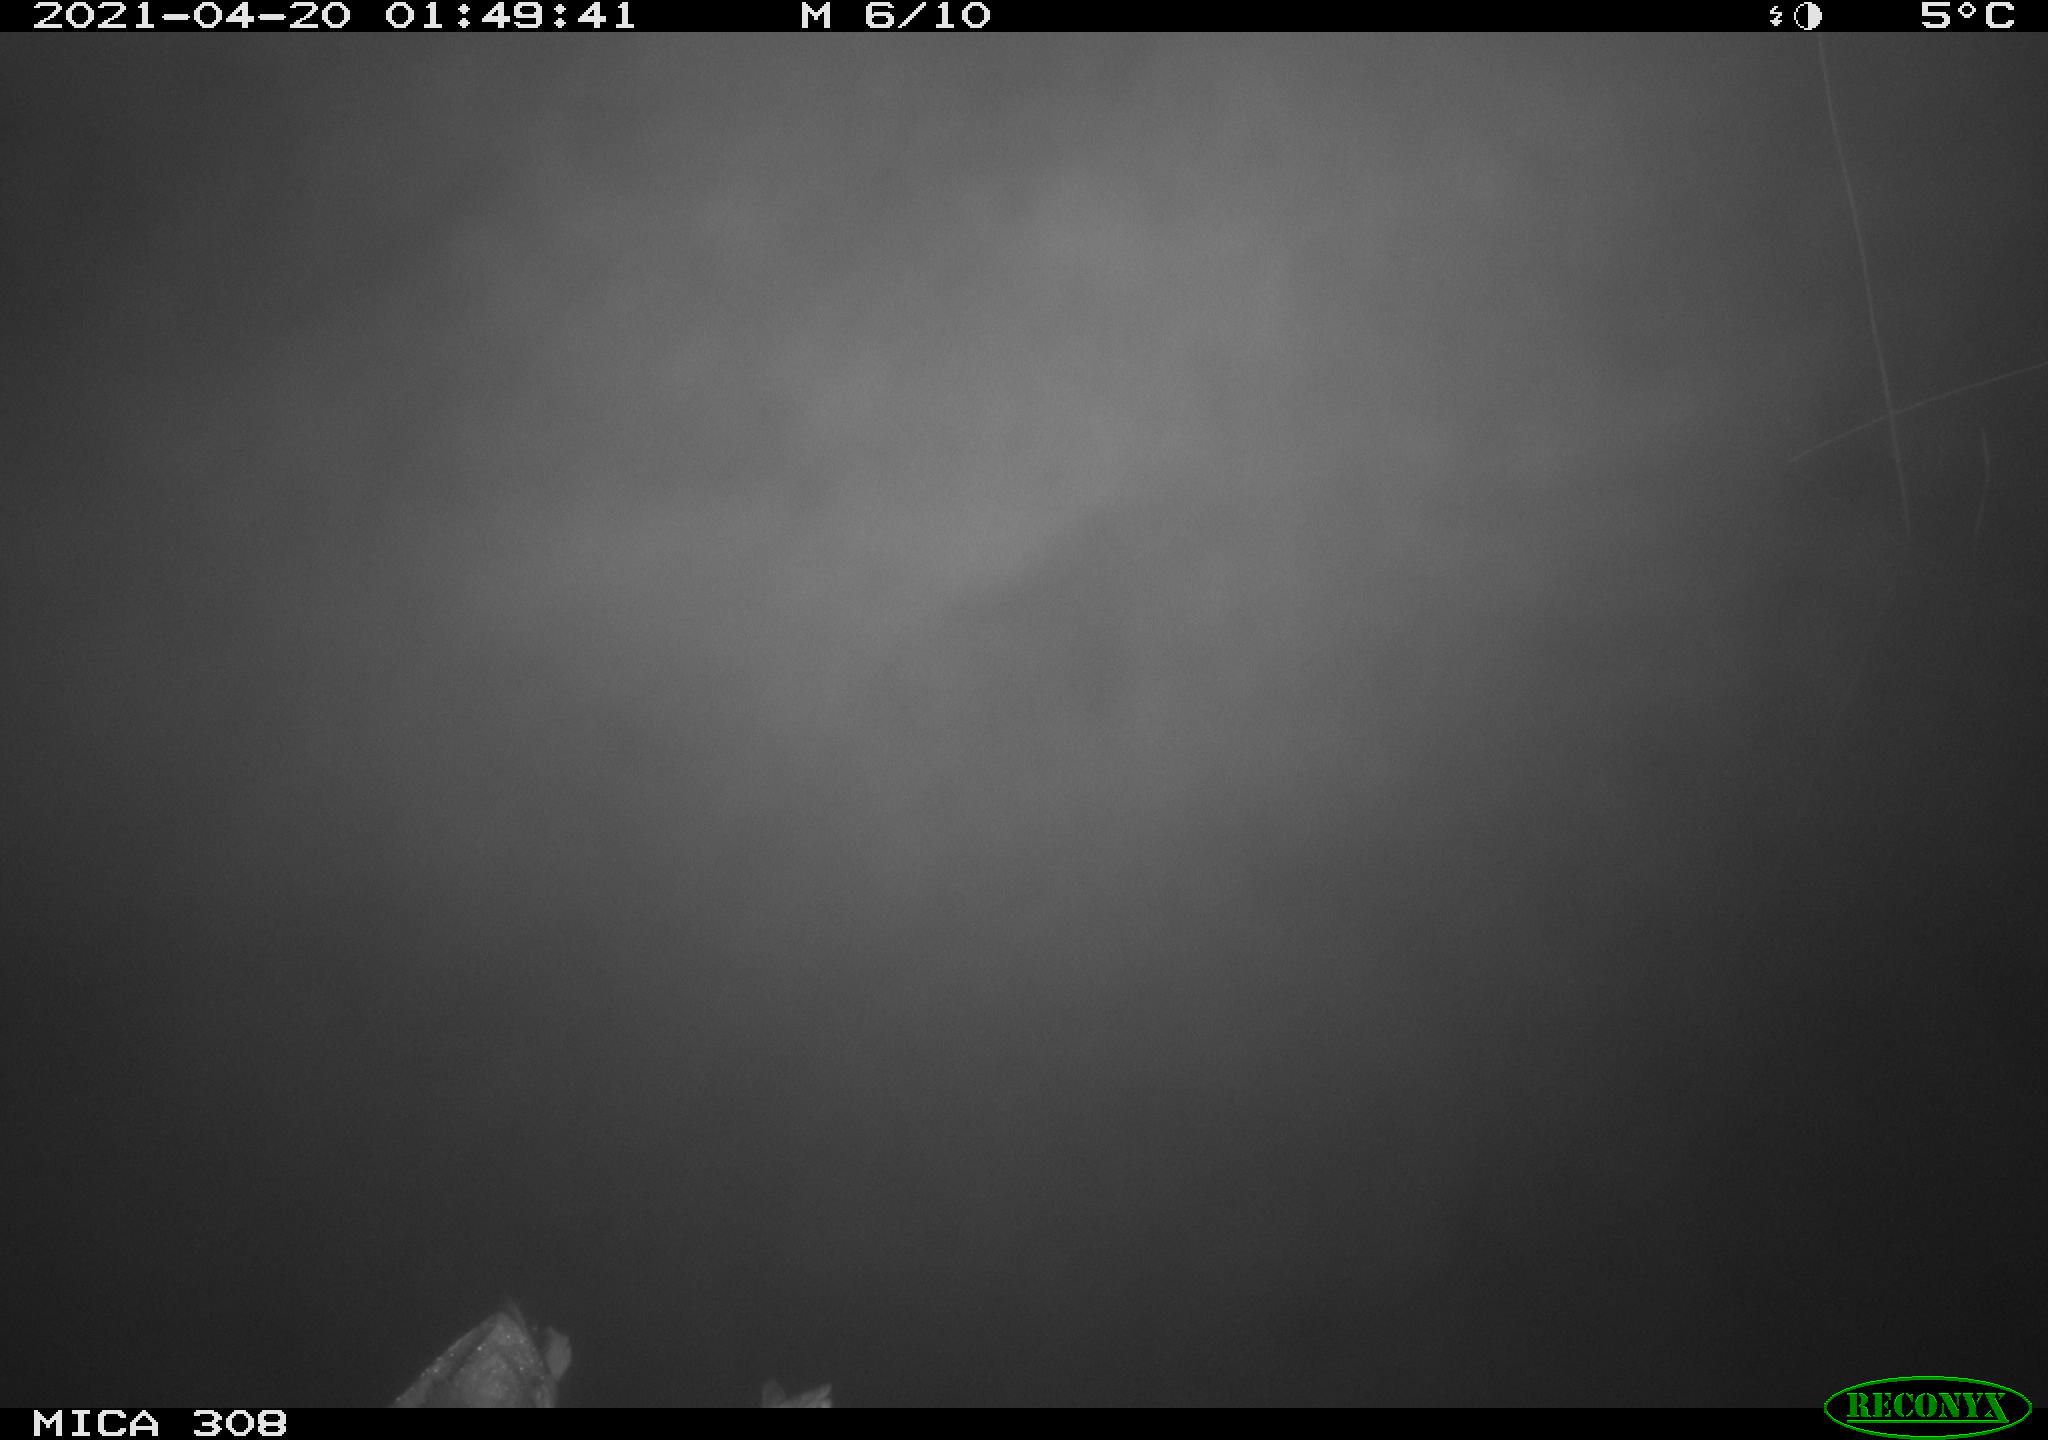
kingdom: Animalia
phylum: Chordata
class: Aves
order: Anseriformes
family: Anatidae
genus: Anas
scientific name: Anas platyrhynchos
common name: Mallard
